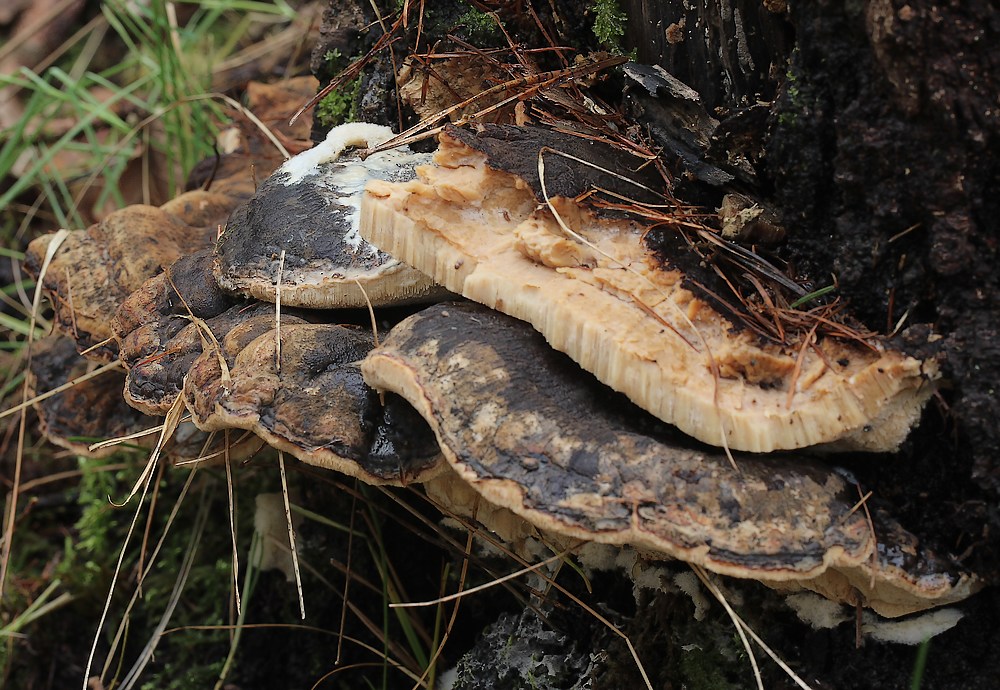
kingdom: Fungi
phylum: Basidiomycota
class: Agaricomycetes
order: Polyporales
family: Ischnodermataceae
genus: Ischnoderma
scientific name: Ischnoderma resinosum
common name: løv-tjæreporesvamp
